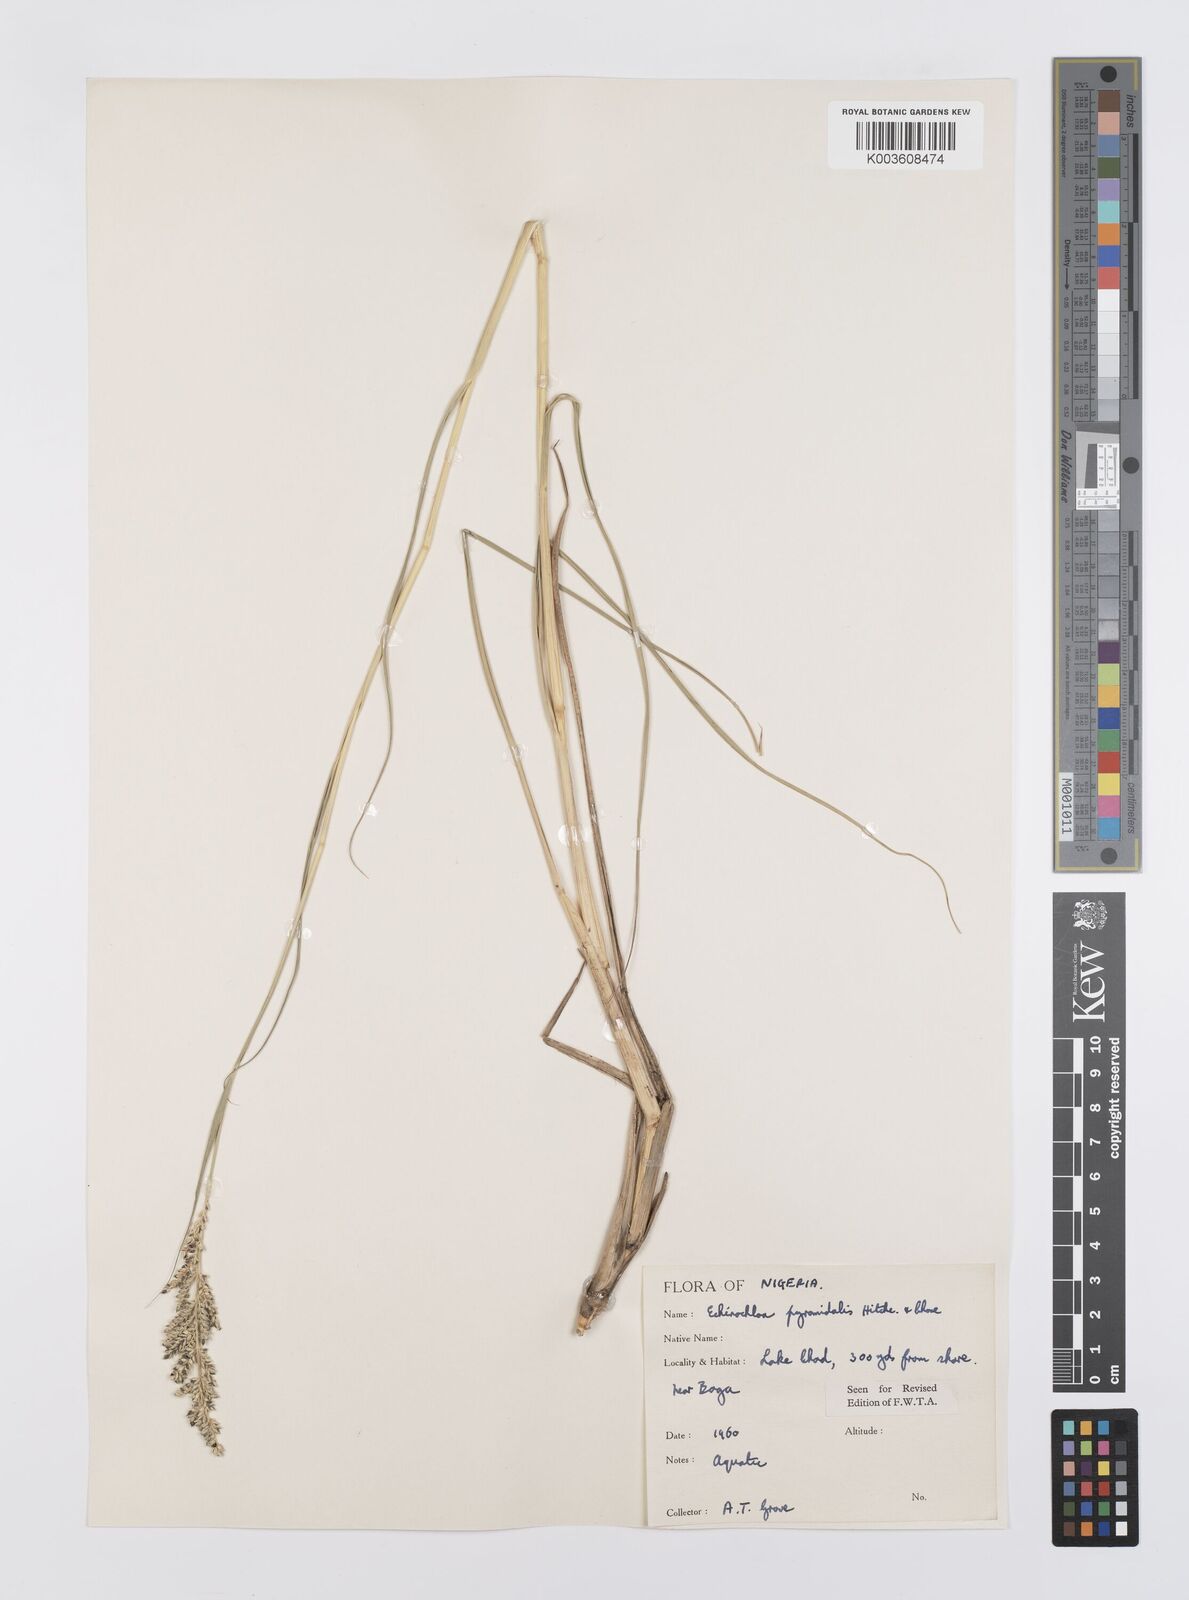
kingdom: Plantae
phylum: Tracheophyta
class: Liliopsida
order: Poales
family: Poaceae
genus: Echinochloa
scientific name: Echinochloa pyramidalis
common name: Antelope grass
